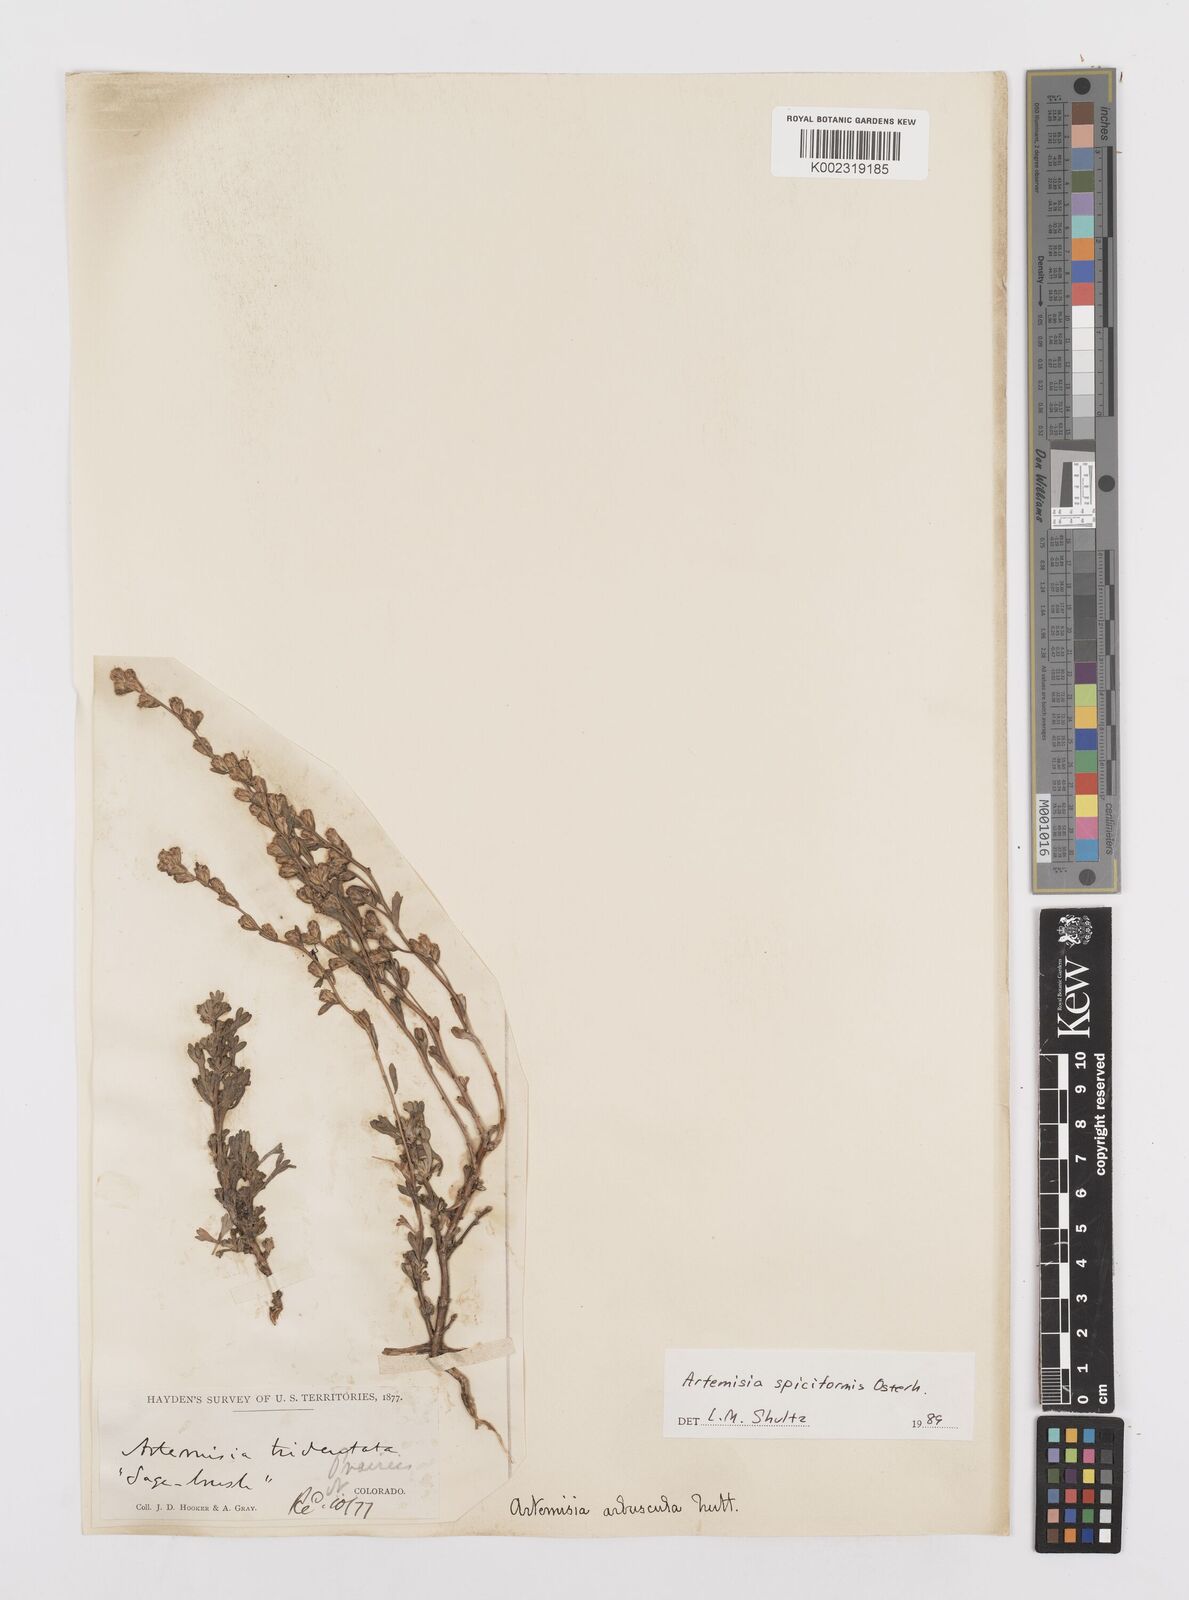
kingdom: Plantae
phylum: Tracheophyta
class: Magnoliopsida
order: Asterales
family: Asteraceae
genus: Artemisia
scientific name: Artemisia spiciformis
